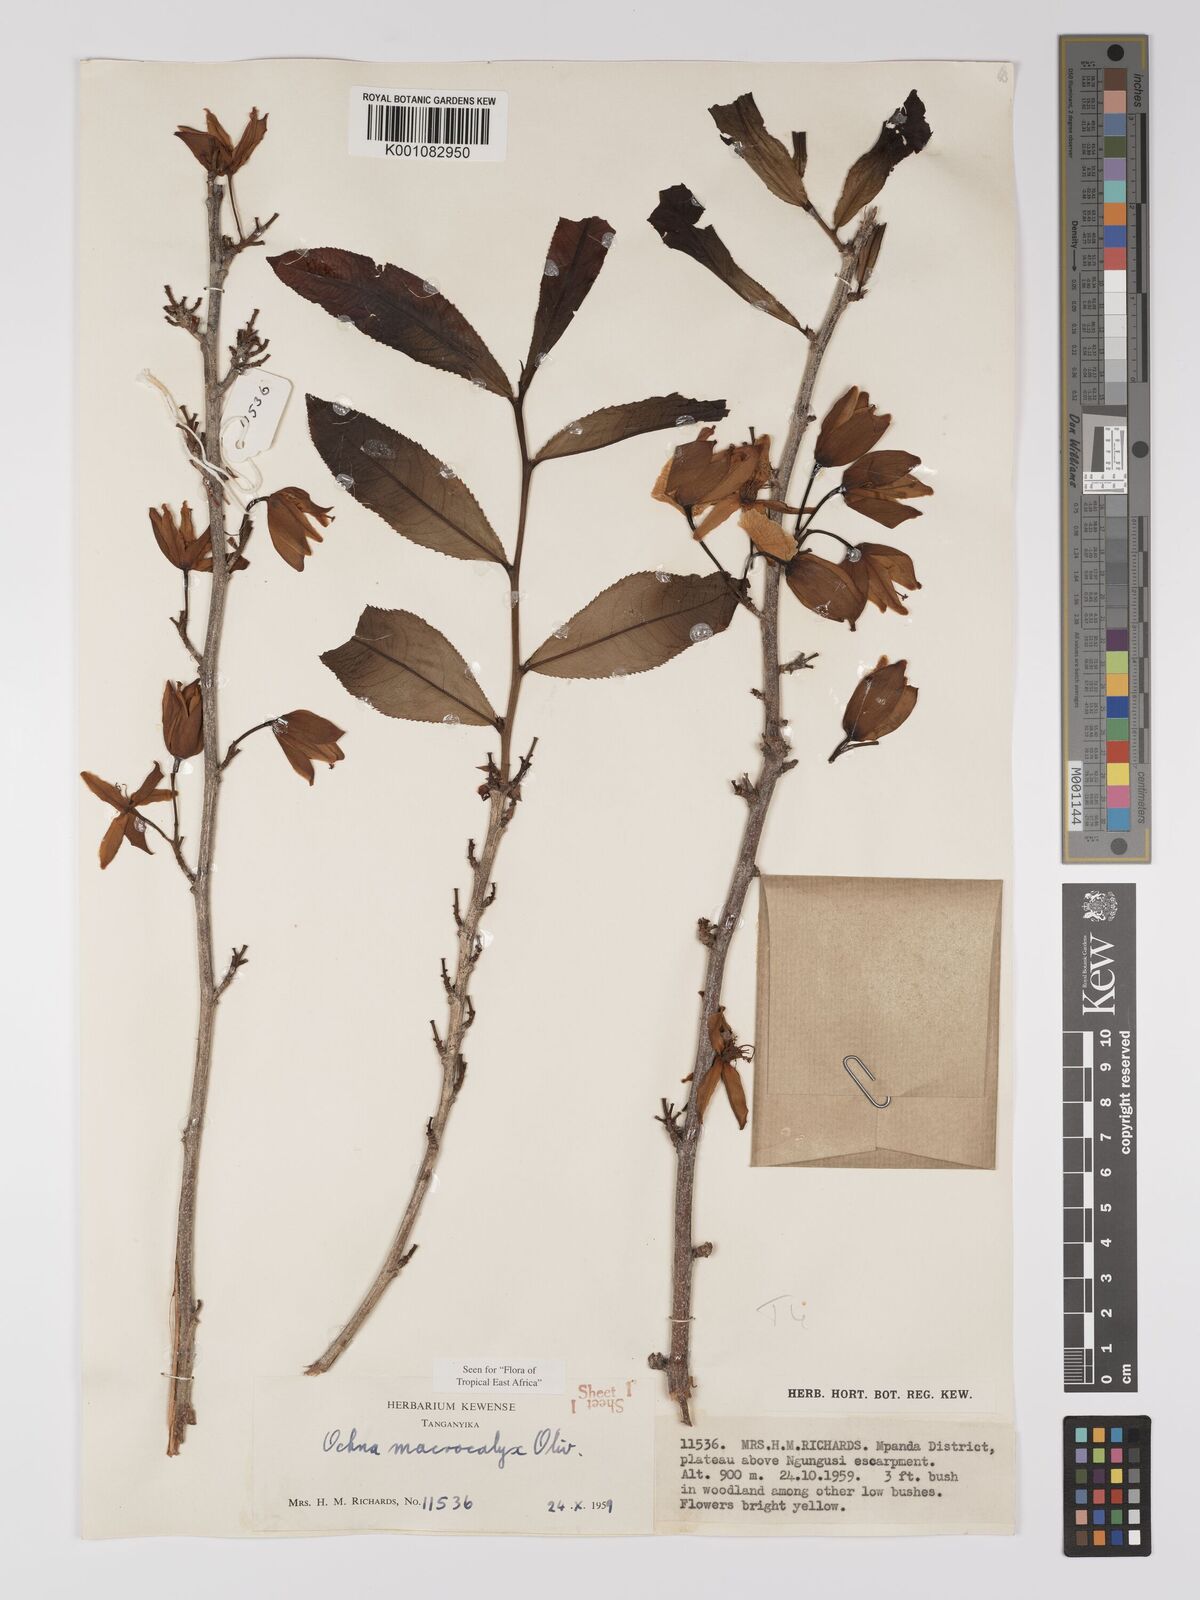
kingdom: Plantae
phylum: Tracheophyta
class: Magnoliopsida
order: Malpighiales
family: Ochnaceae
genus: Ochna
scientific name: Ochna macrocalyx
